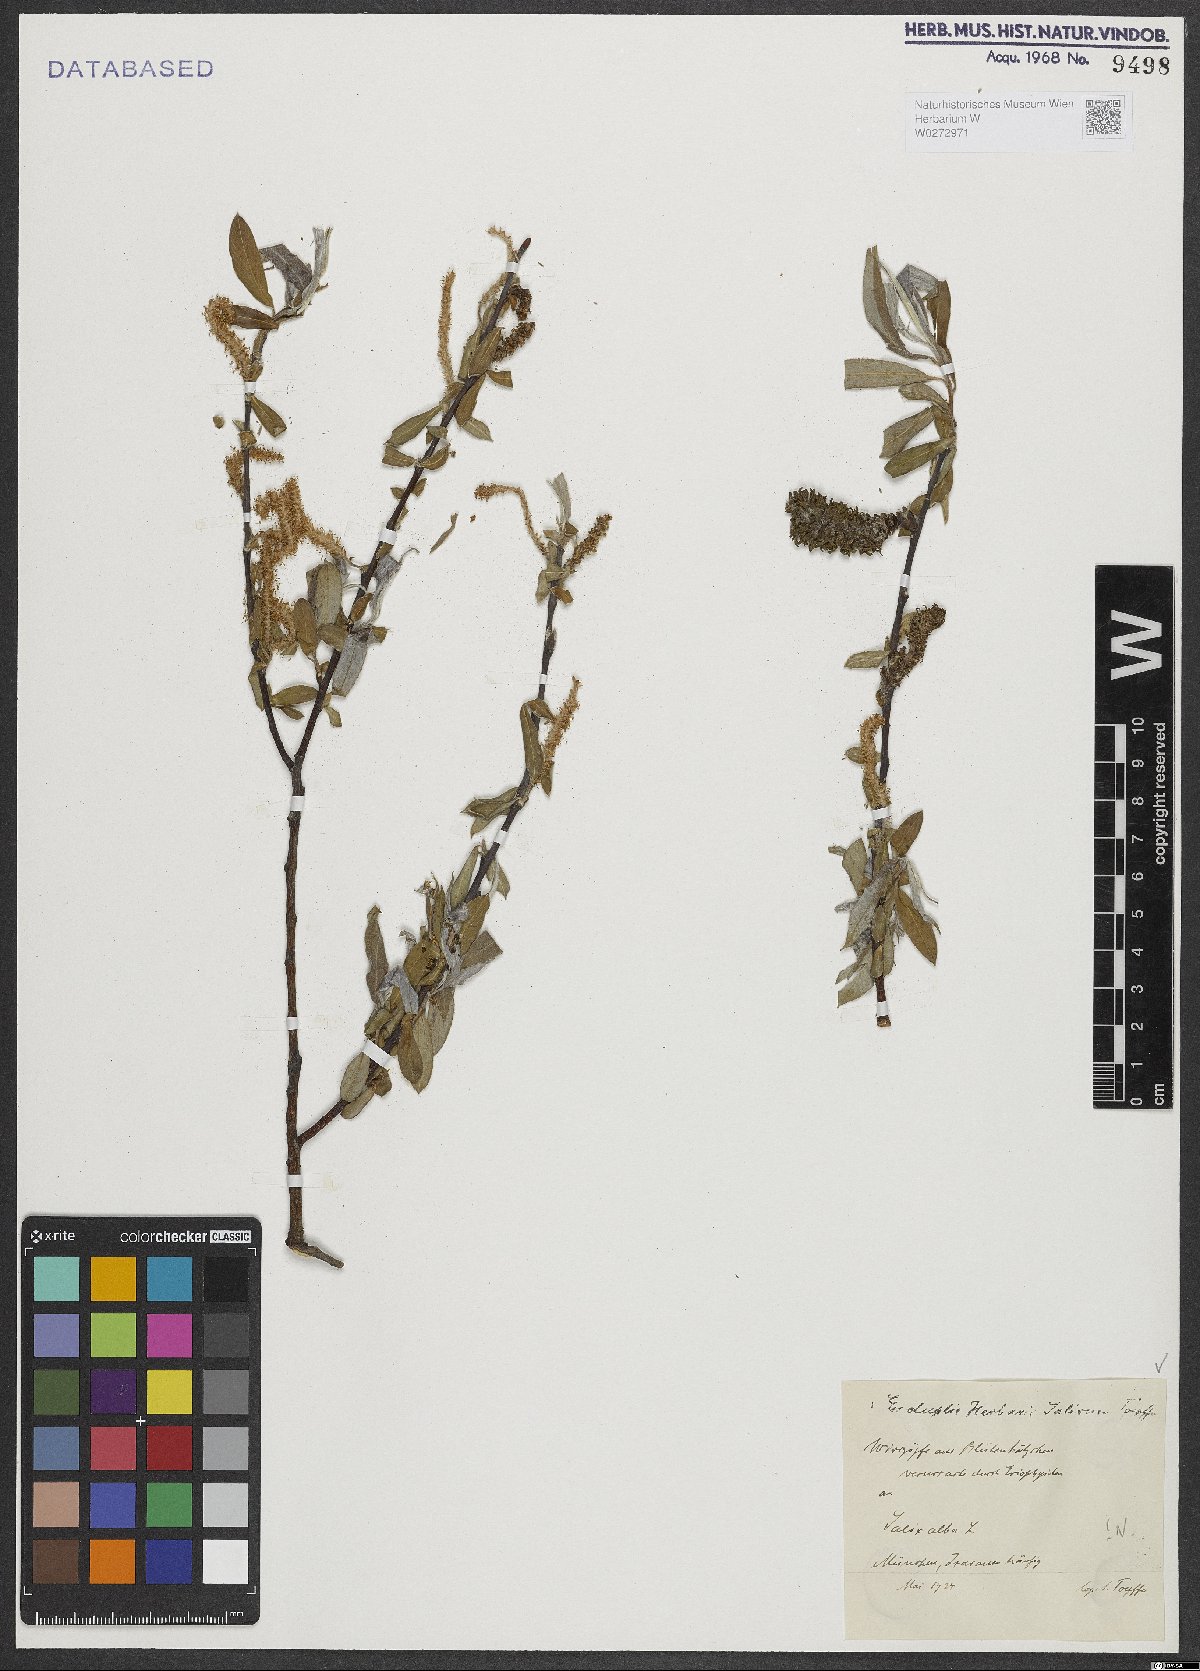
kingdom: Plantae
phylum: Tracheophyta
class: Magnoliopsida
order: Malpighiales
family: Salicaceae
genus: Salix
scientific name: Salix alba
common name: White willow
